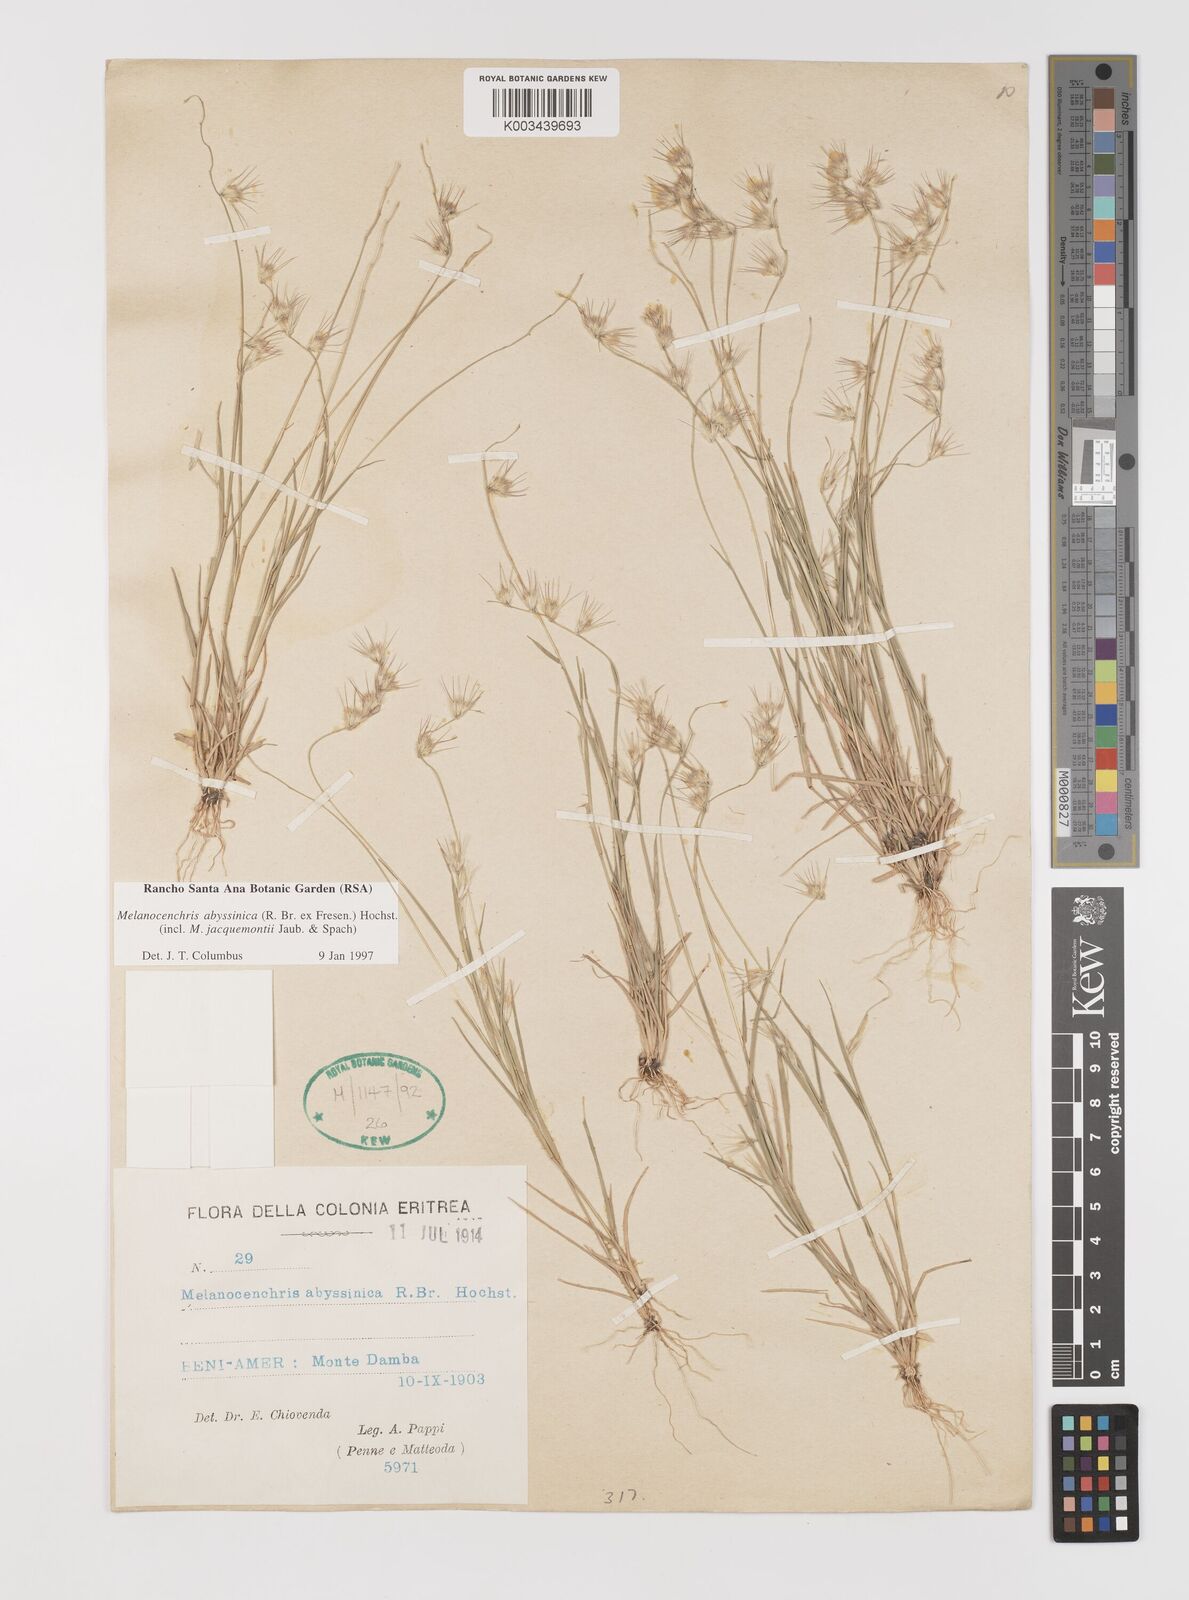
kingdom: Plantae
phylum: Tracheophyta
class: Liliopsida
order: Poales
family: Poaceae
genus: Melanocenchris
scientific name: Melanocenchris abyssinica
